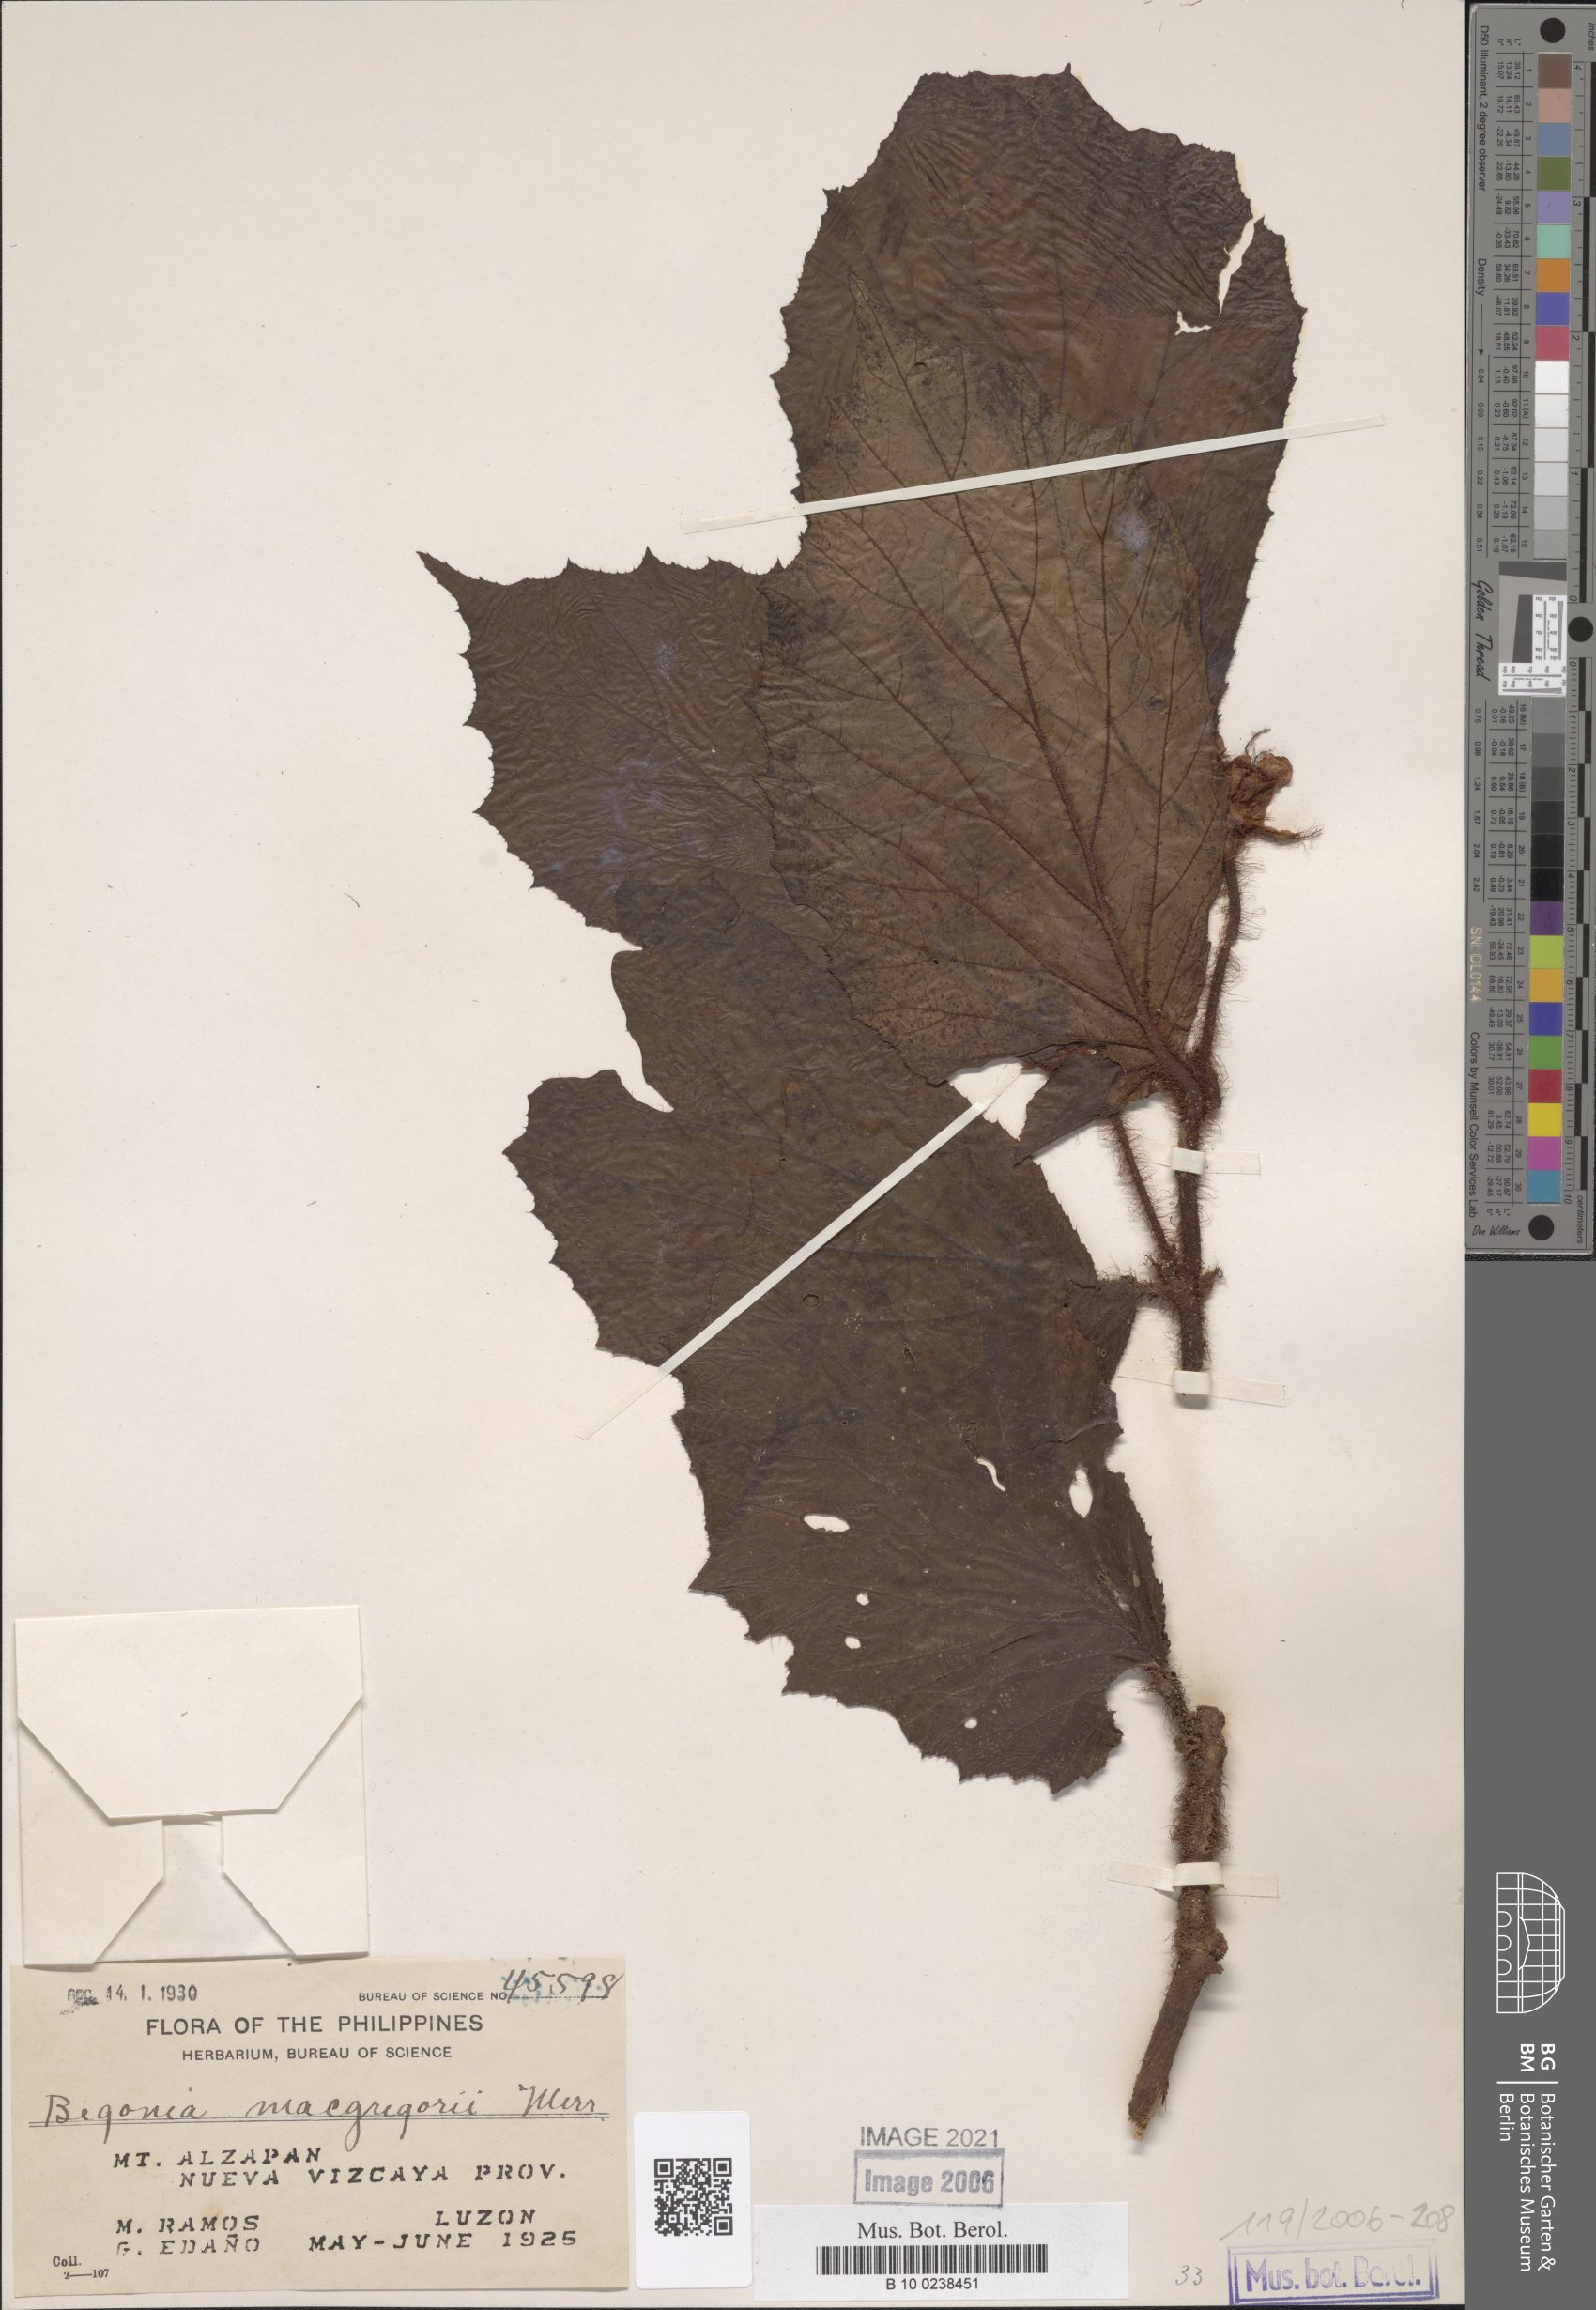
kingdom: Plantae
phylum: Tracheophyta
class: Magnoliopsida
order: Cucurbitales
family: Begoniaceae
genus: Begonia
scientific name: Begonia macgregorii
